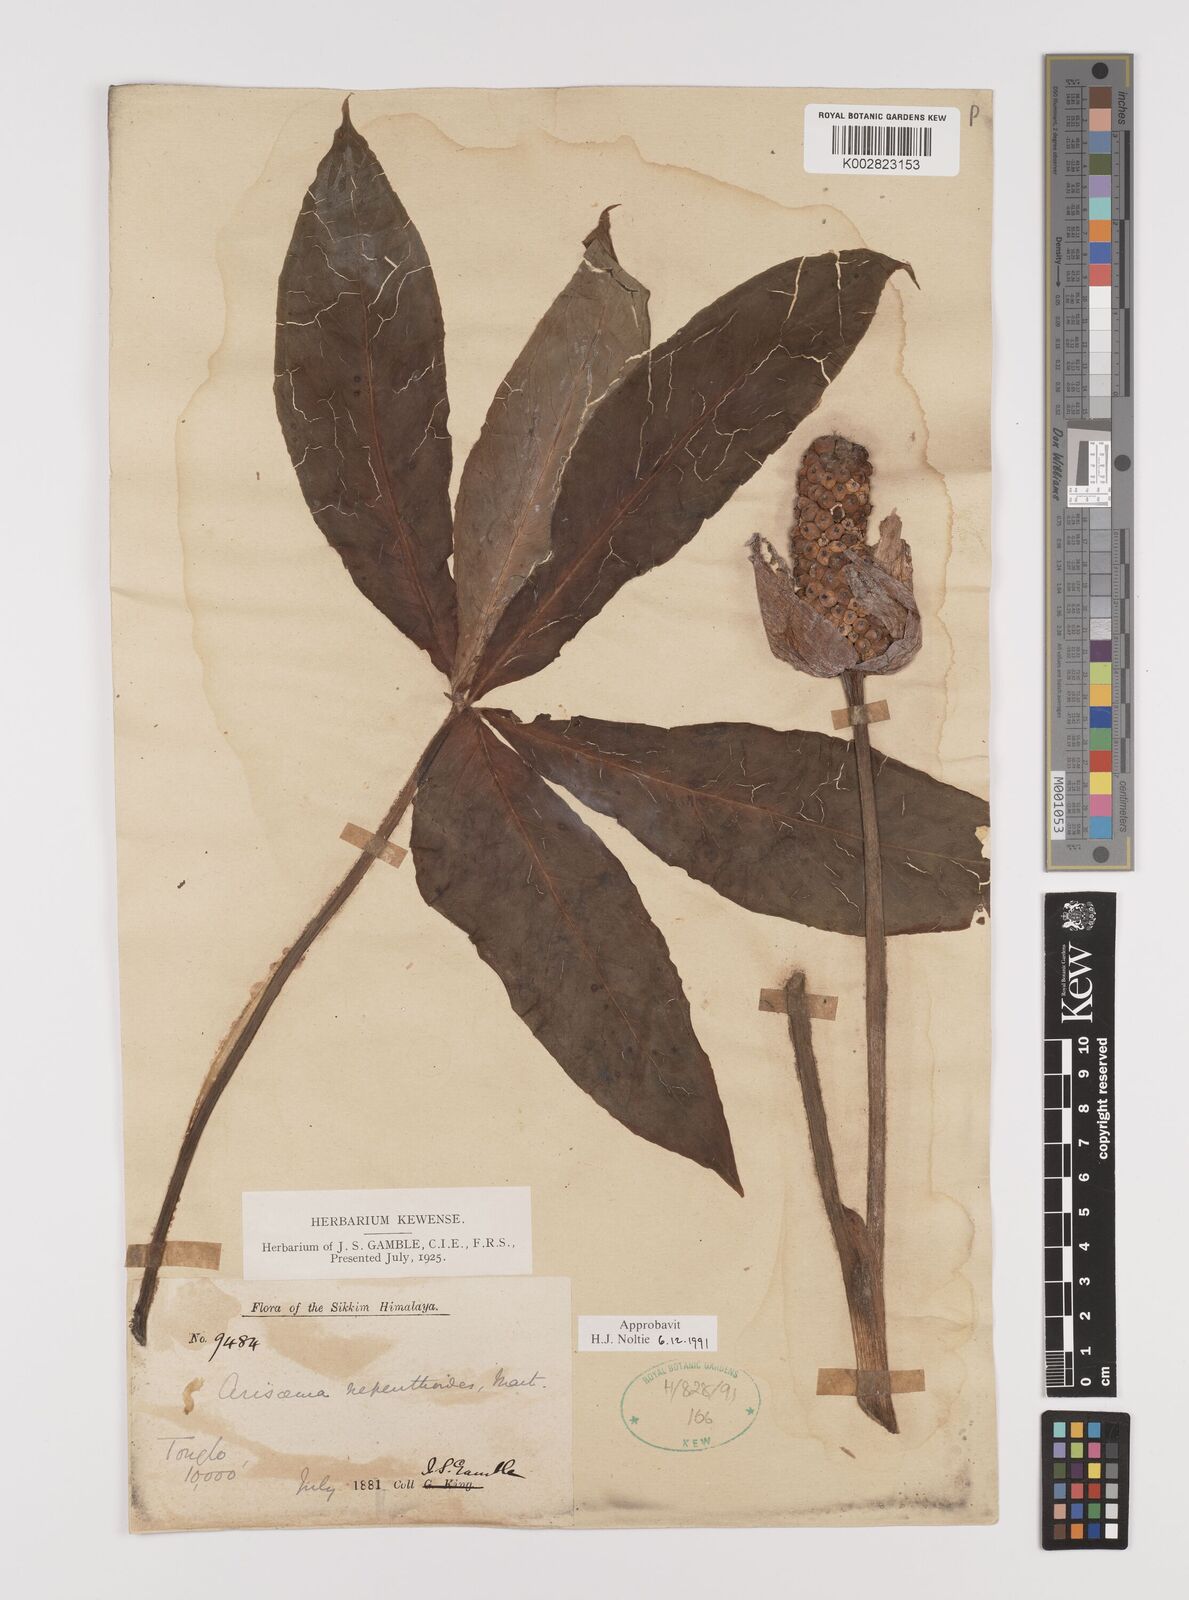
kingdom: Plantae
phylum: Tracheophyta
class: Liliopsida
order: Alismatales
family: Araceae
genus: Arisaema
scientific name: Arisaema nepenthoides
